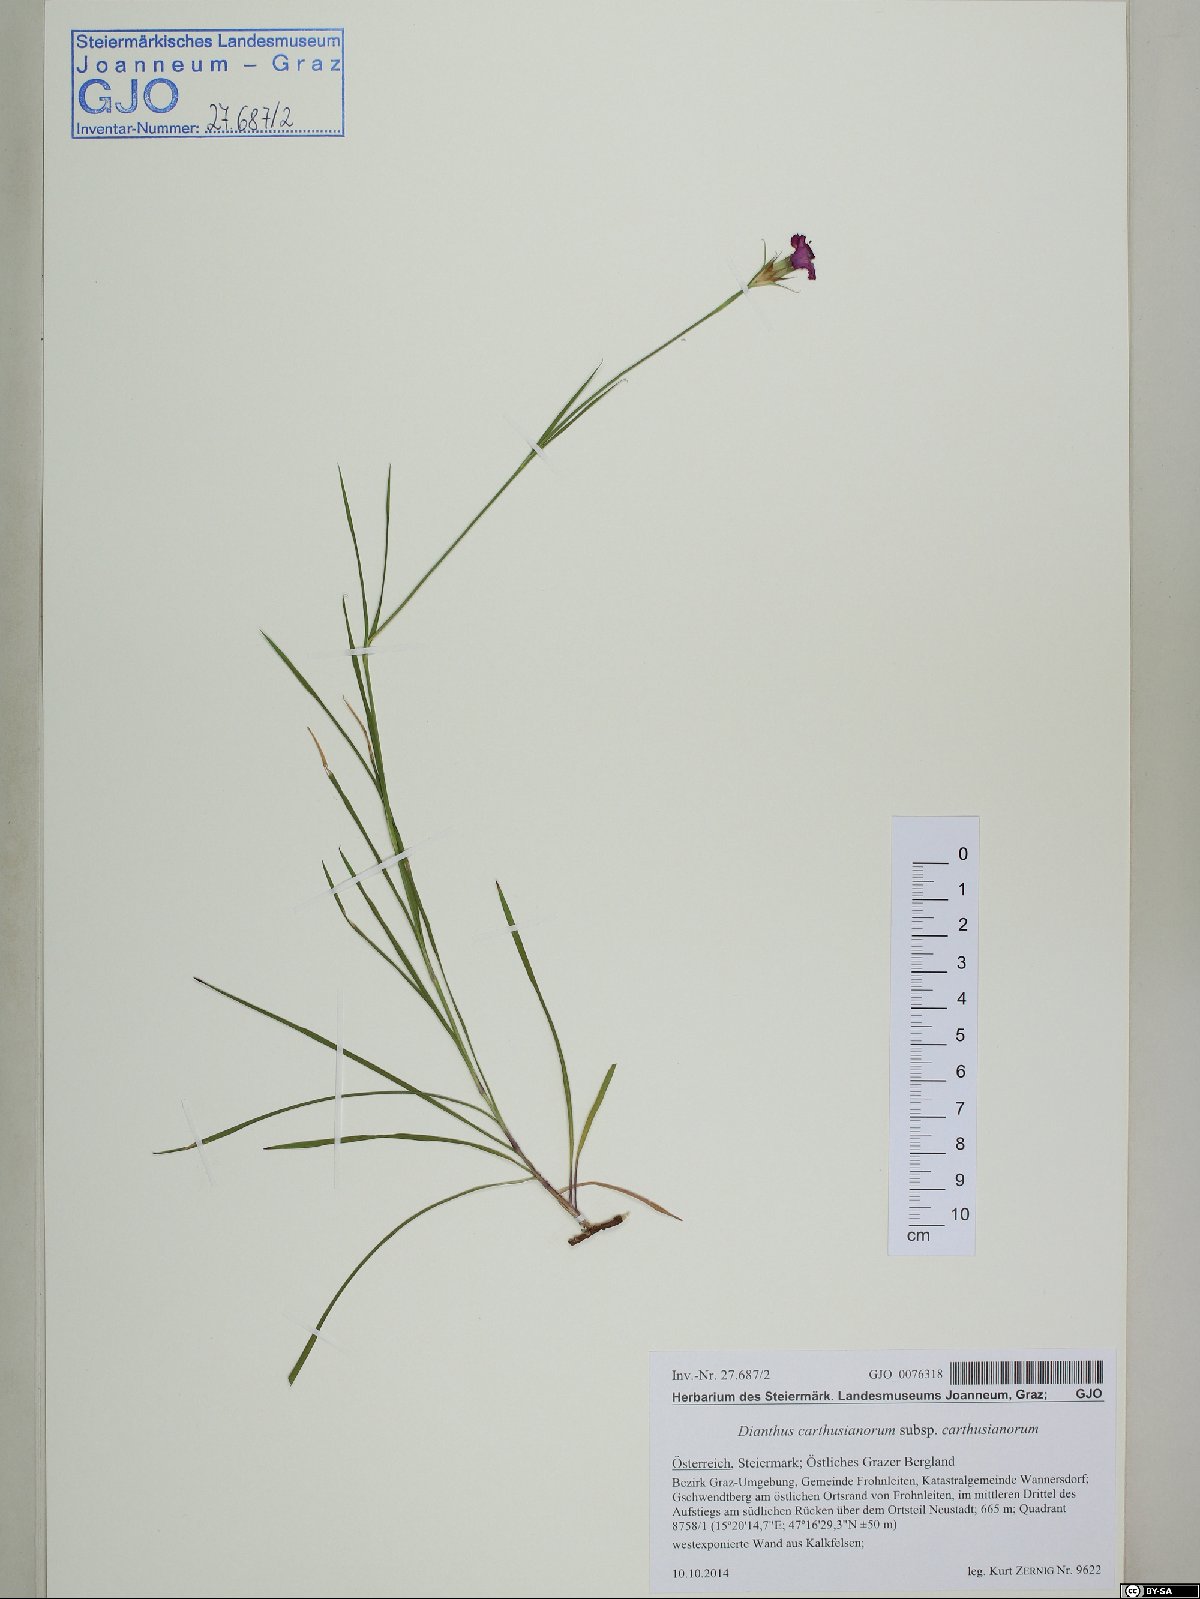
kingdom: Plantae
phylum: Tracheophyta
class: Magnoliopsida
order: Caryophyllales
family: Caryophyllaceae
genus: Dianthus
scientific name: Dianthus carthusianorum
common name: Carthusian pink
